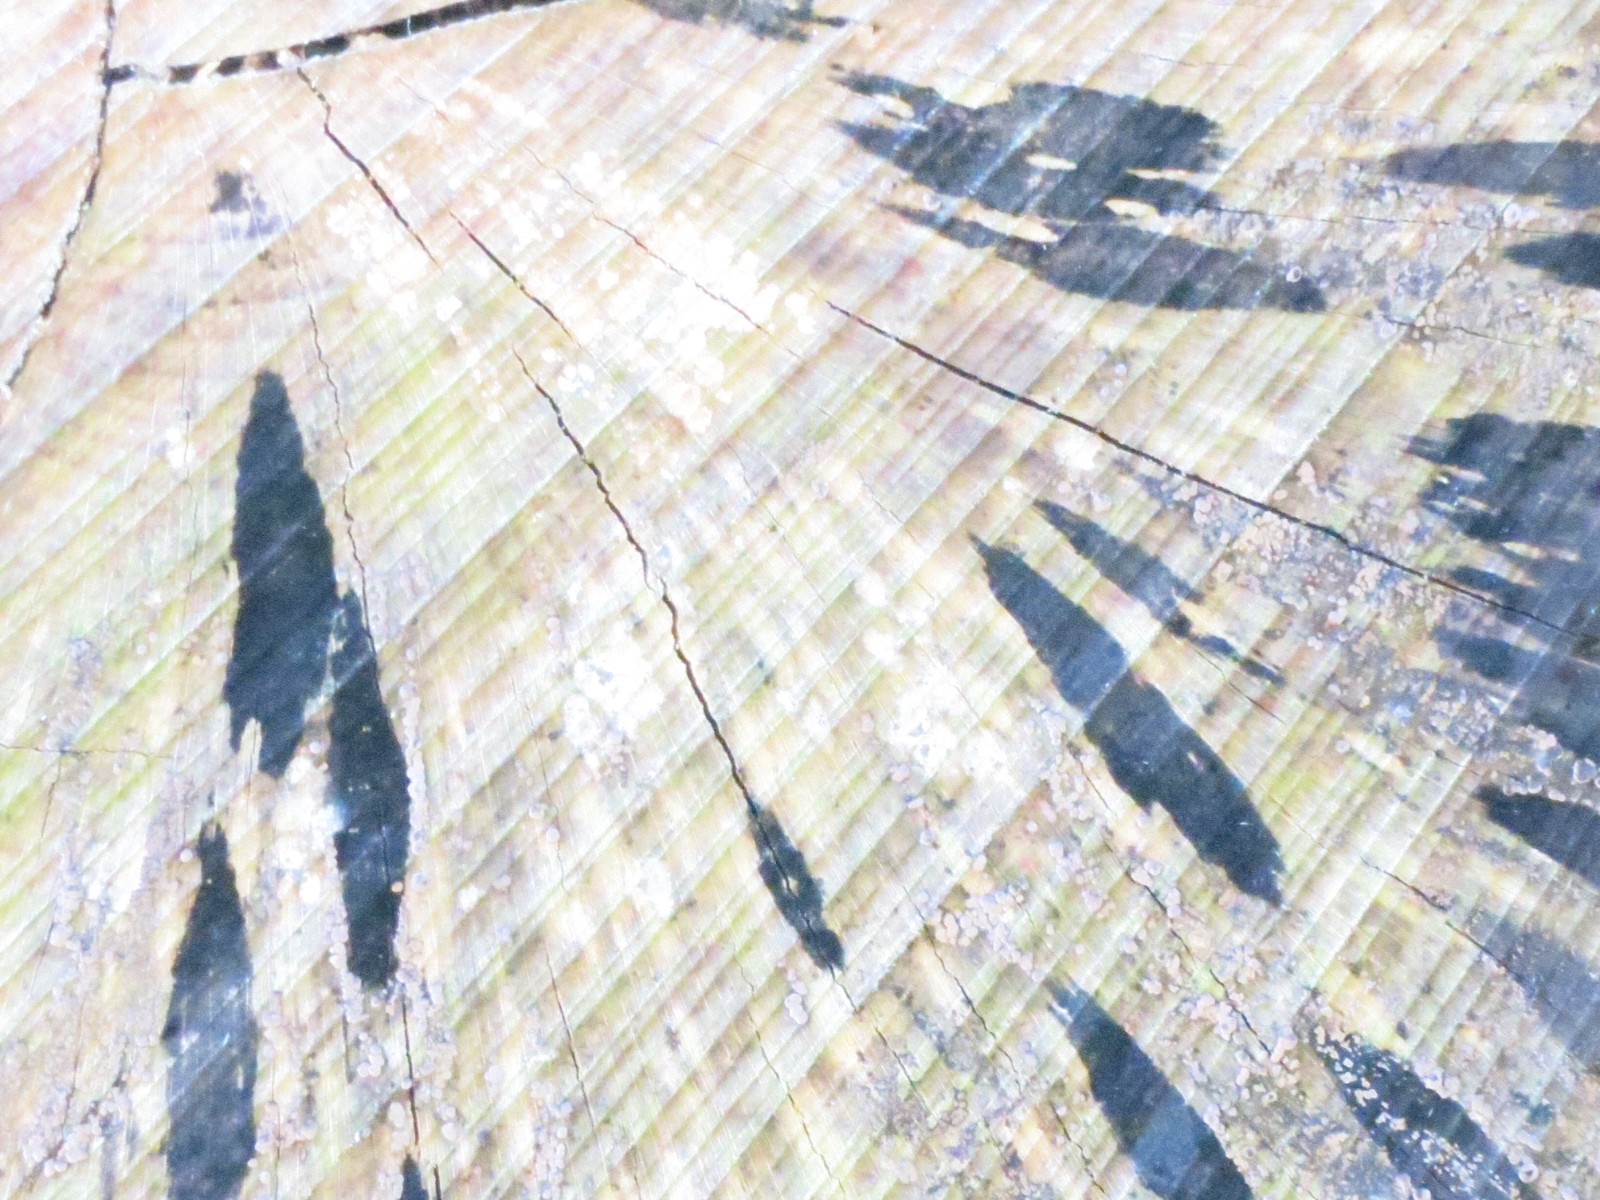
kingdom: Fungi
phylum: Ascomycota
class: Leotiomycetes
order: Helotiales
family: Helotiaceae
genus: Bispora
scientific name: Bispora pallescens
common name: måtte-snitskive
